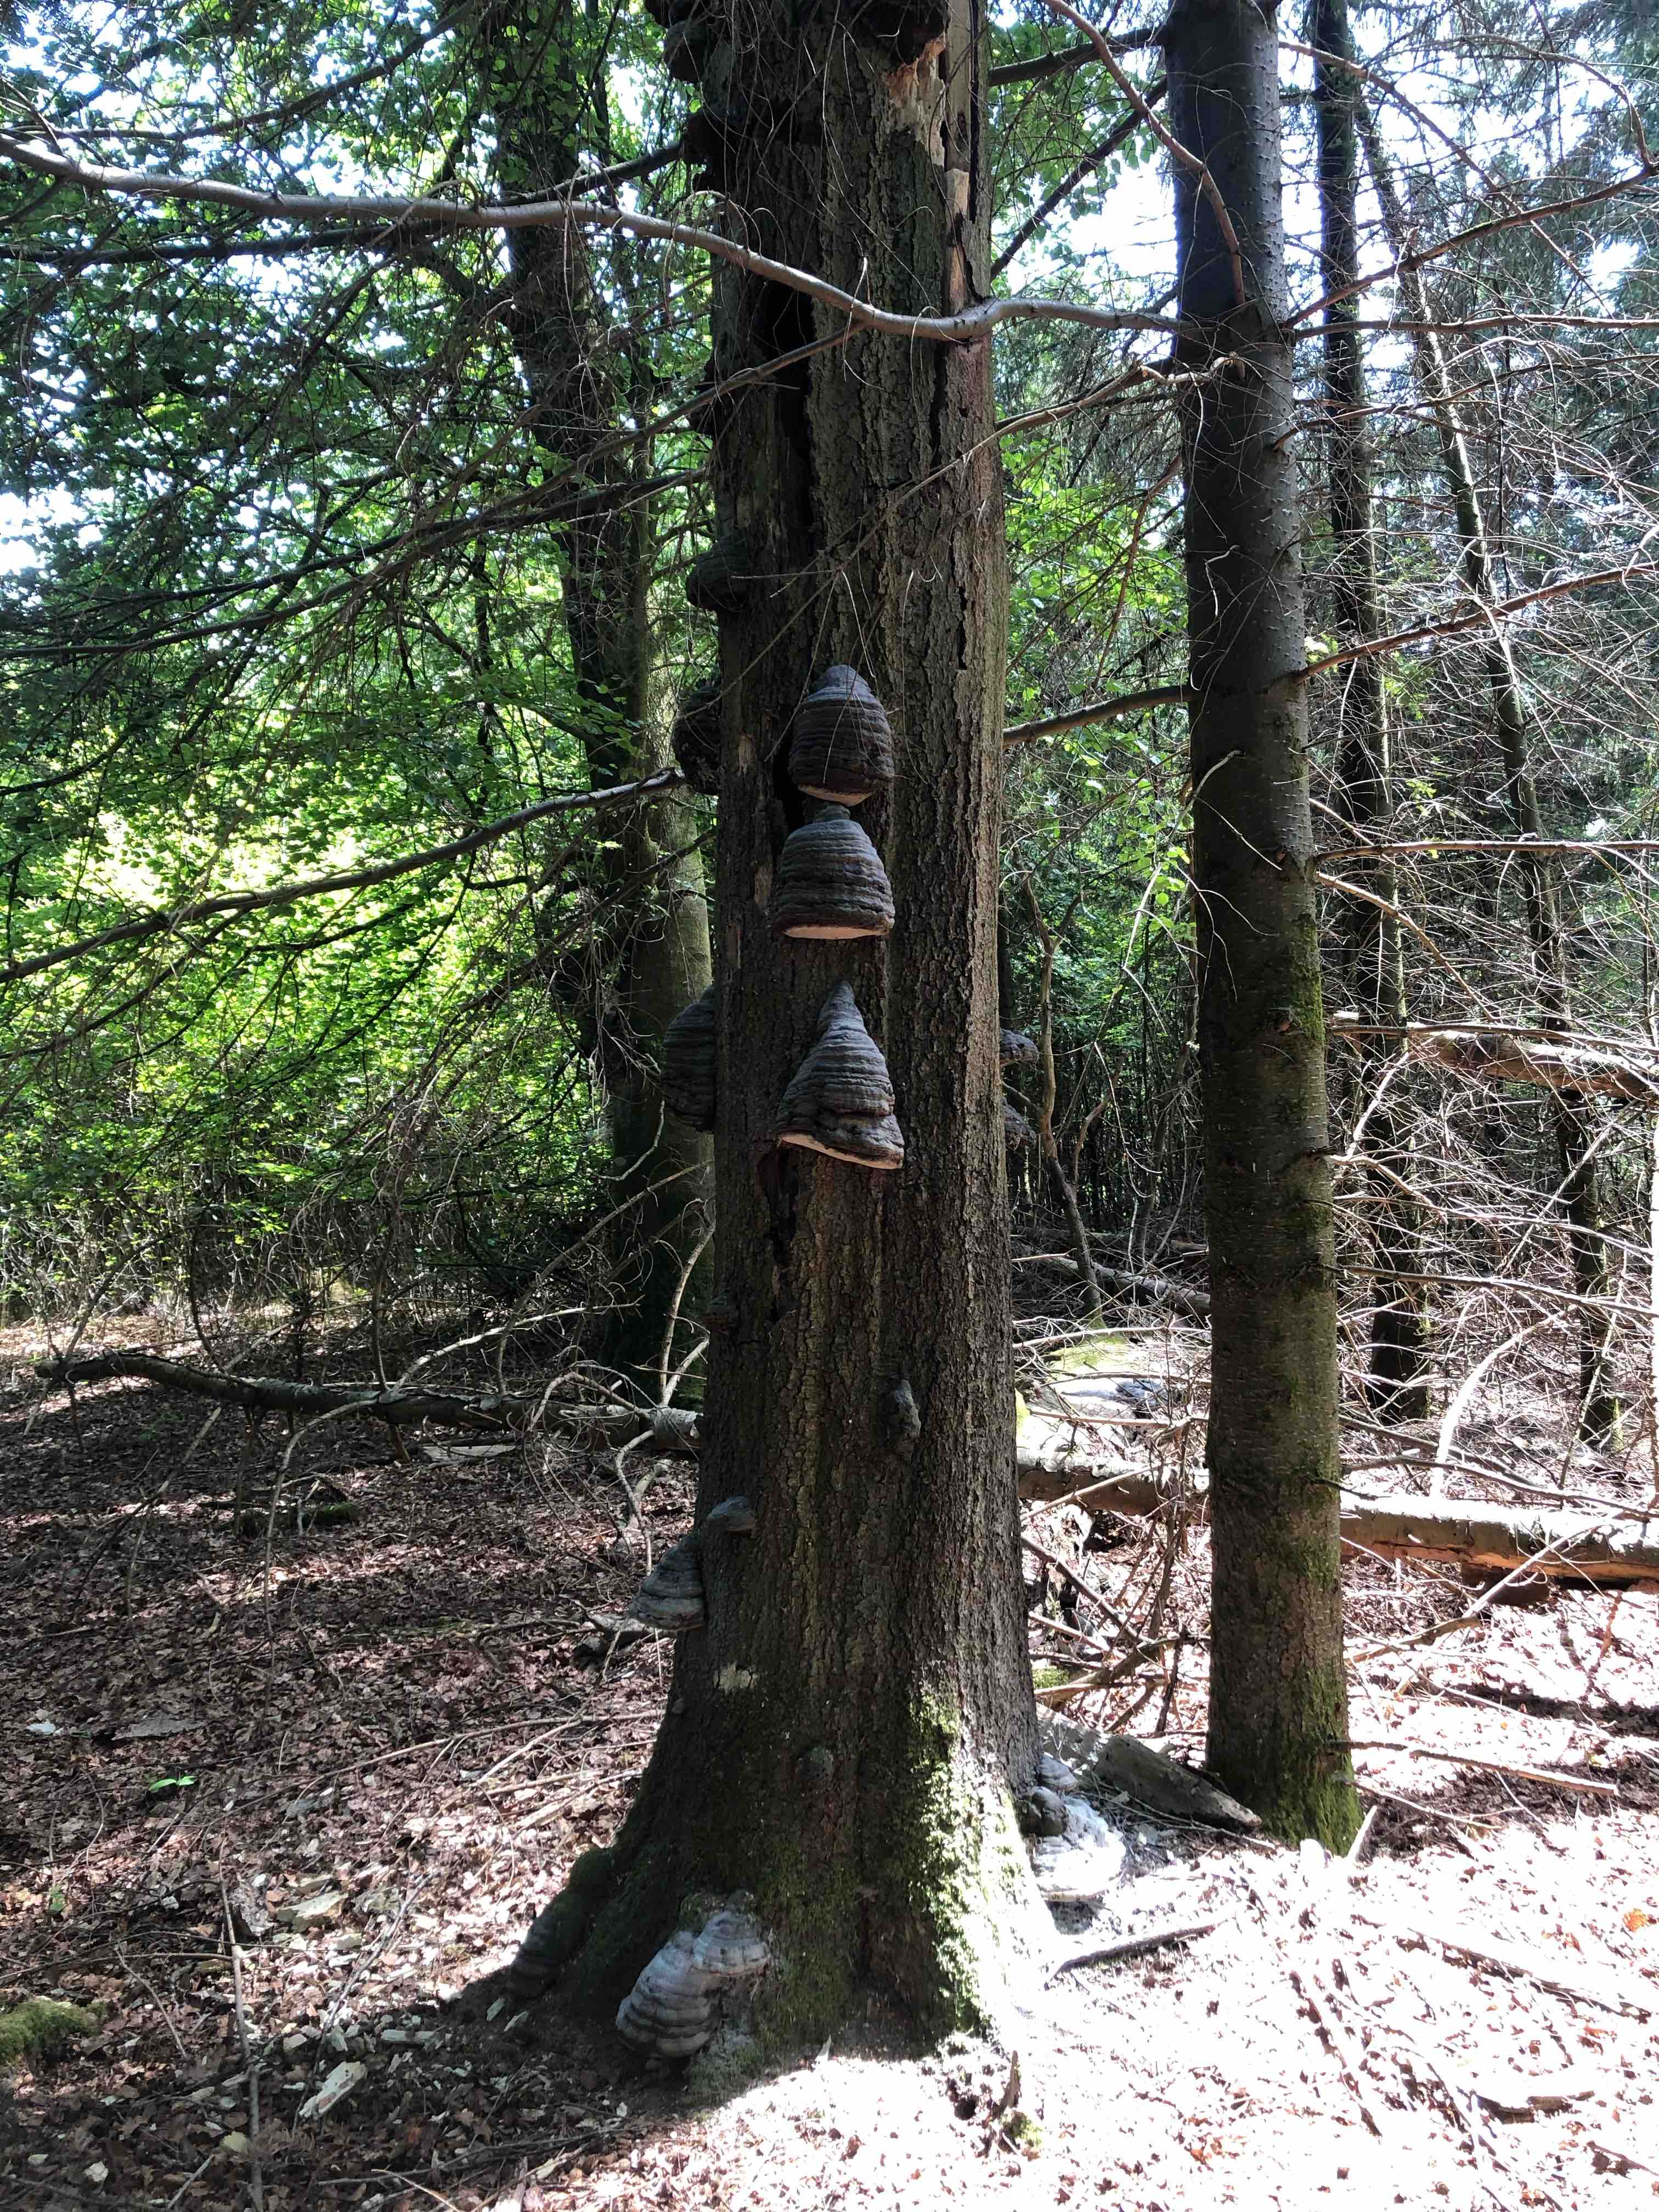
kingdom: Fungi
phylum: Basidiomycota
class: Agaricomycetes
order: Polyporales
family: Polyporaceae
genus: Fomes
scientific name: Fomes fomentarius
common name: tøndersvamp
